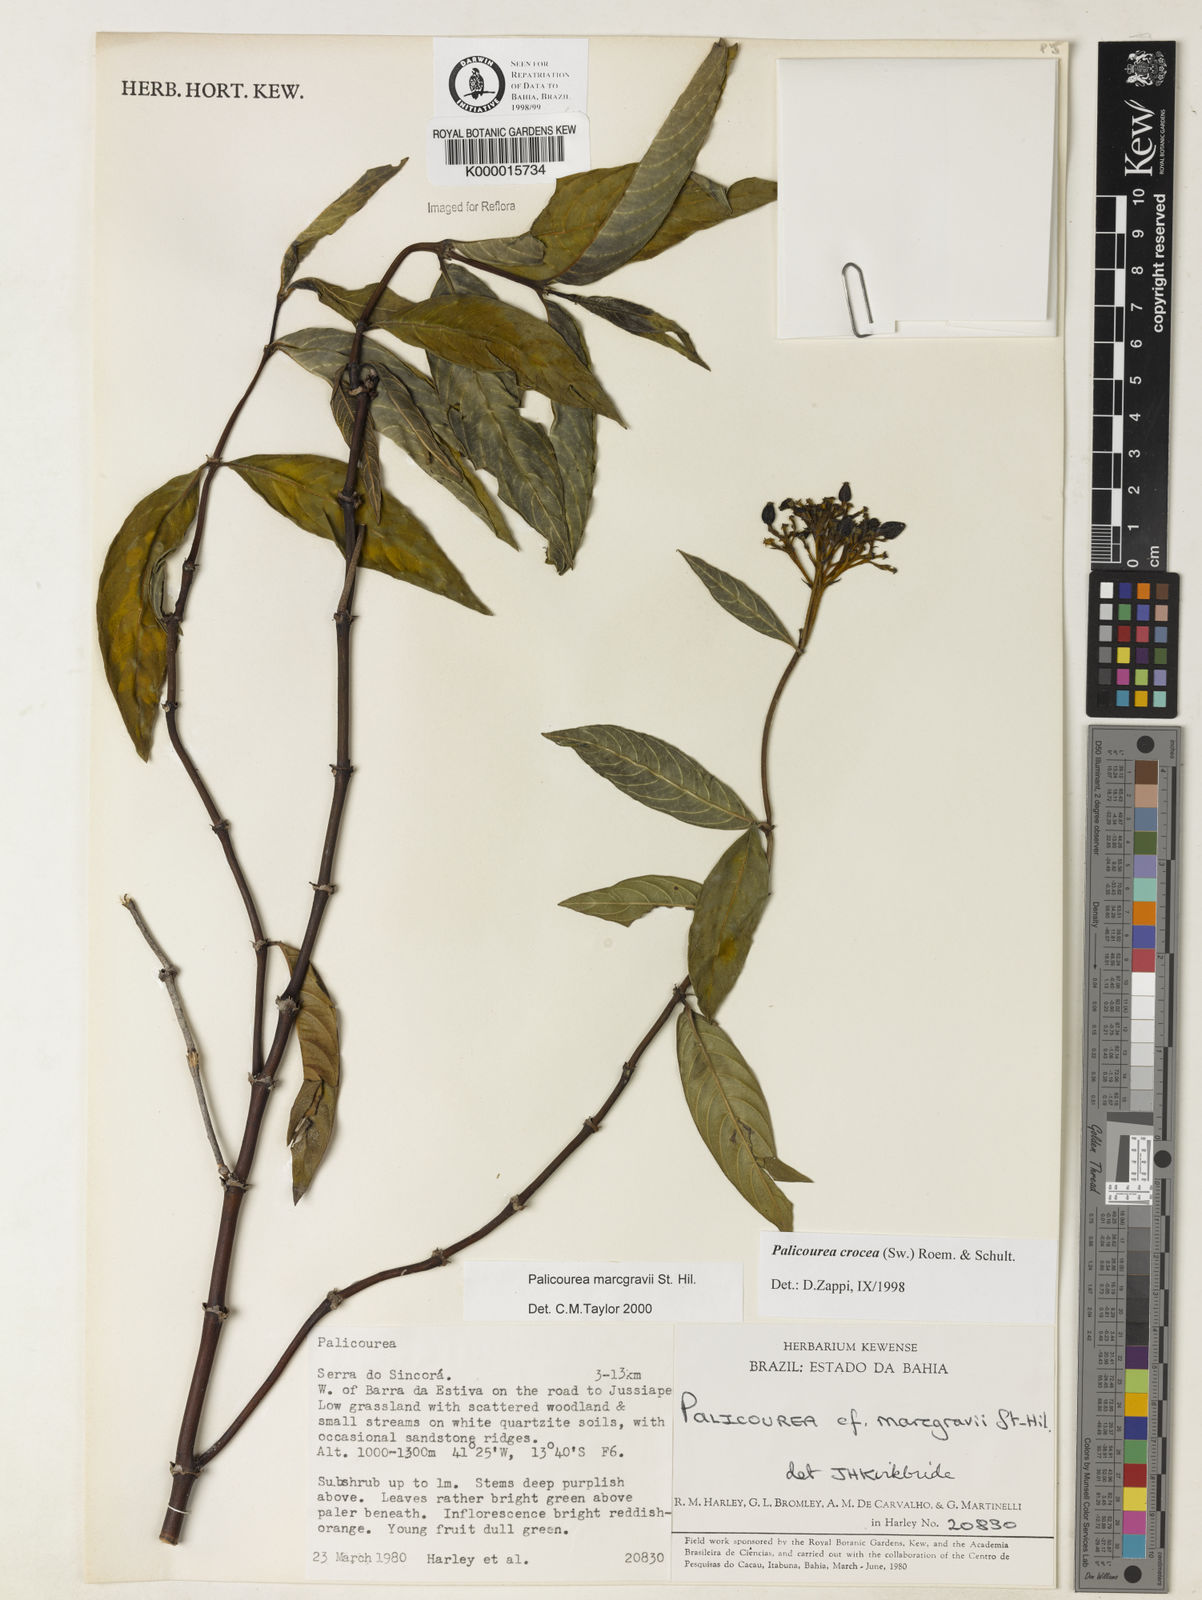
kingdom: Plantae
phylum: Tracheophyta
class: Magnoliopsida
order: Gentianales
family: Rubiaceae
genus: Palicourea
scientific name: Palicourea marcgravii
